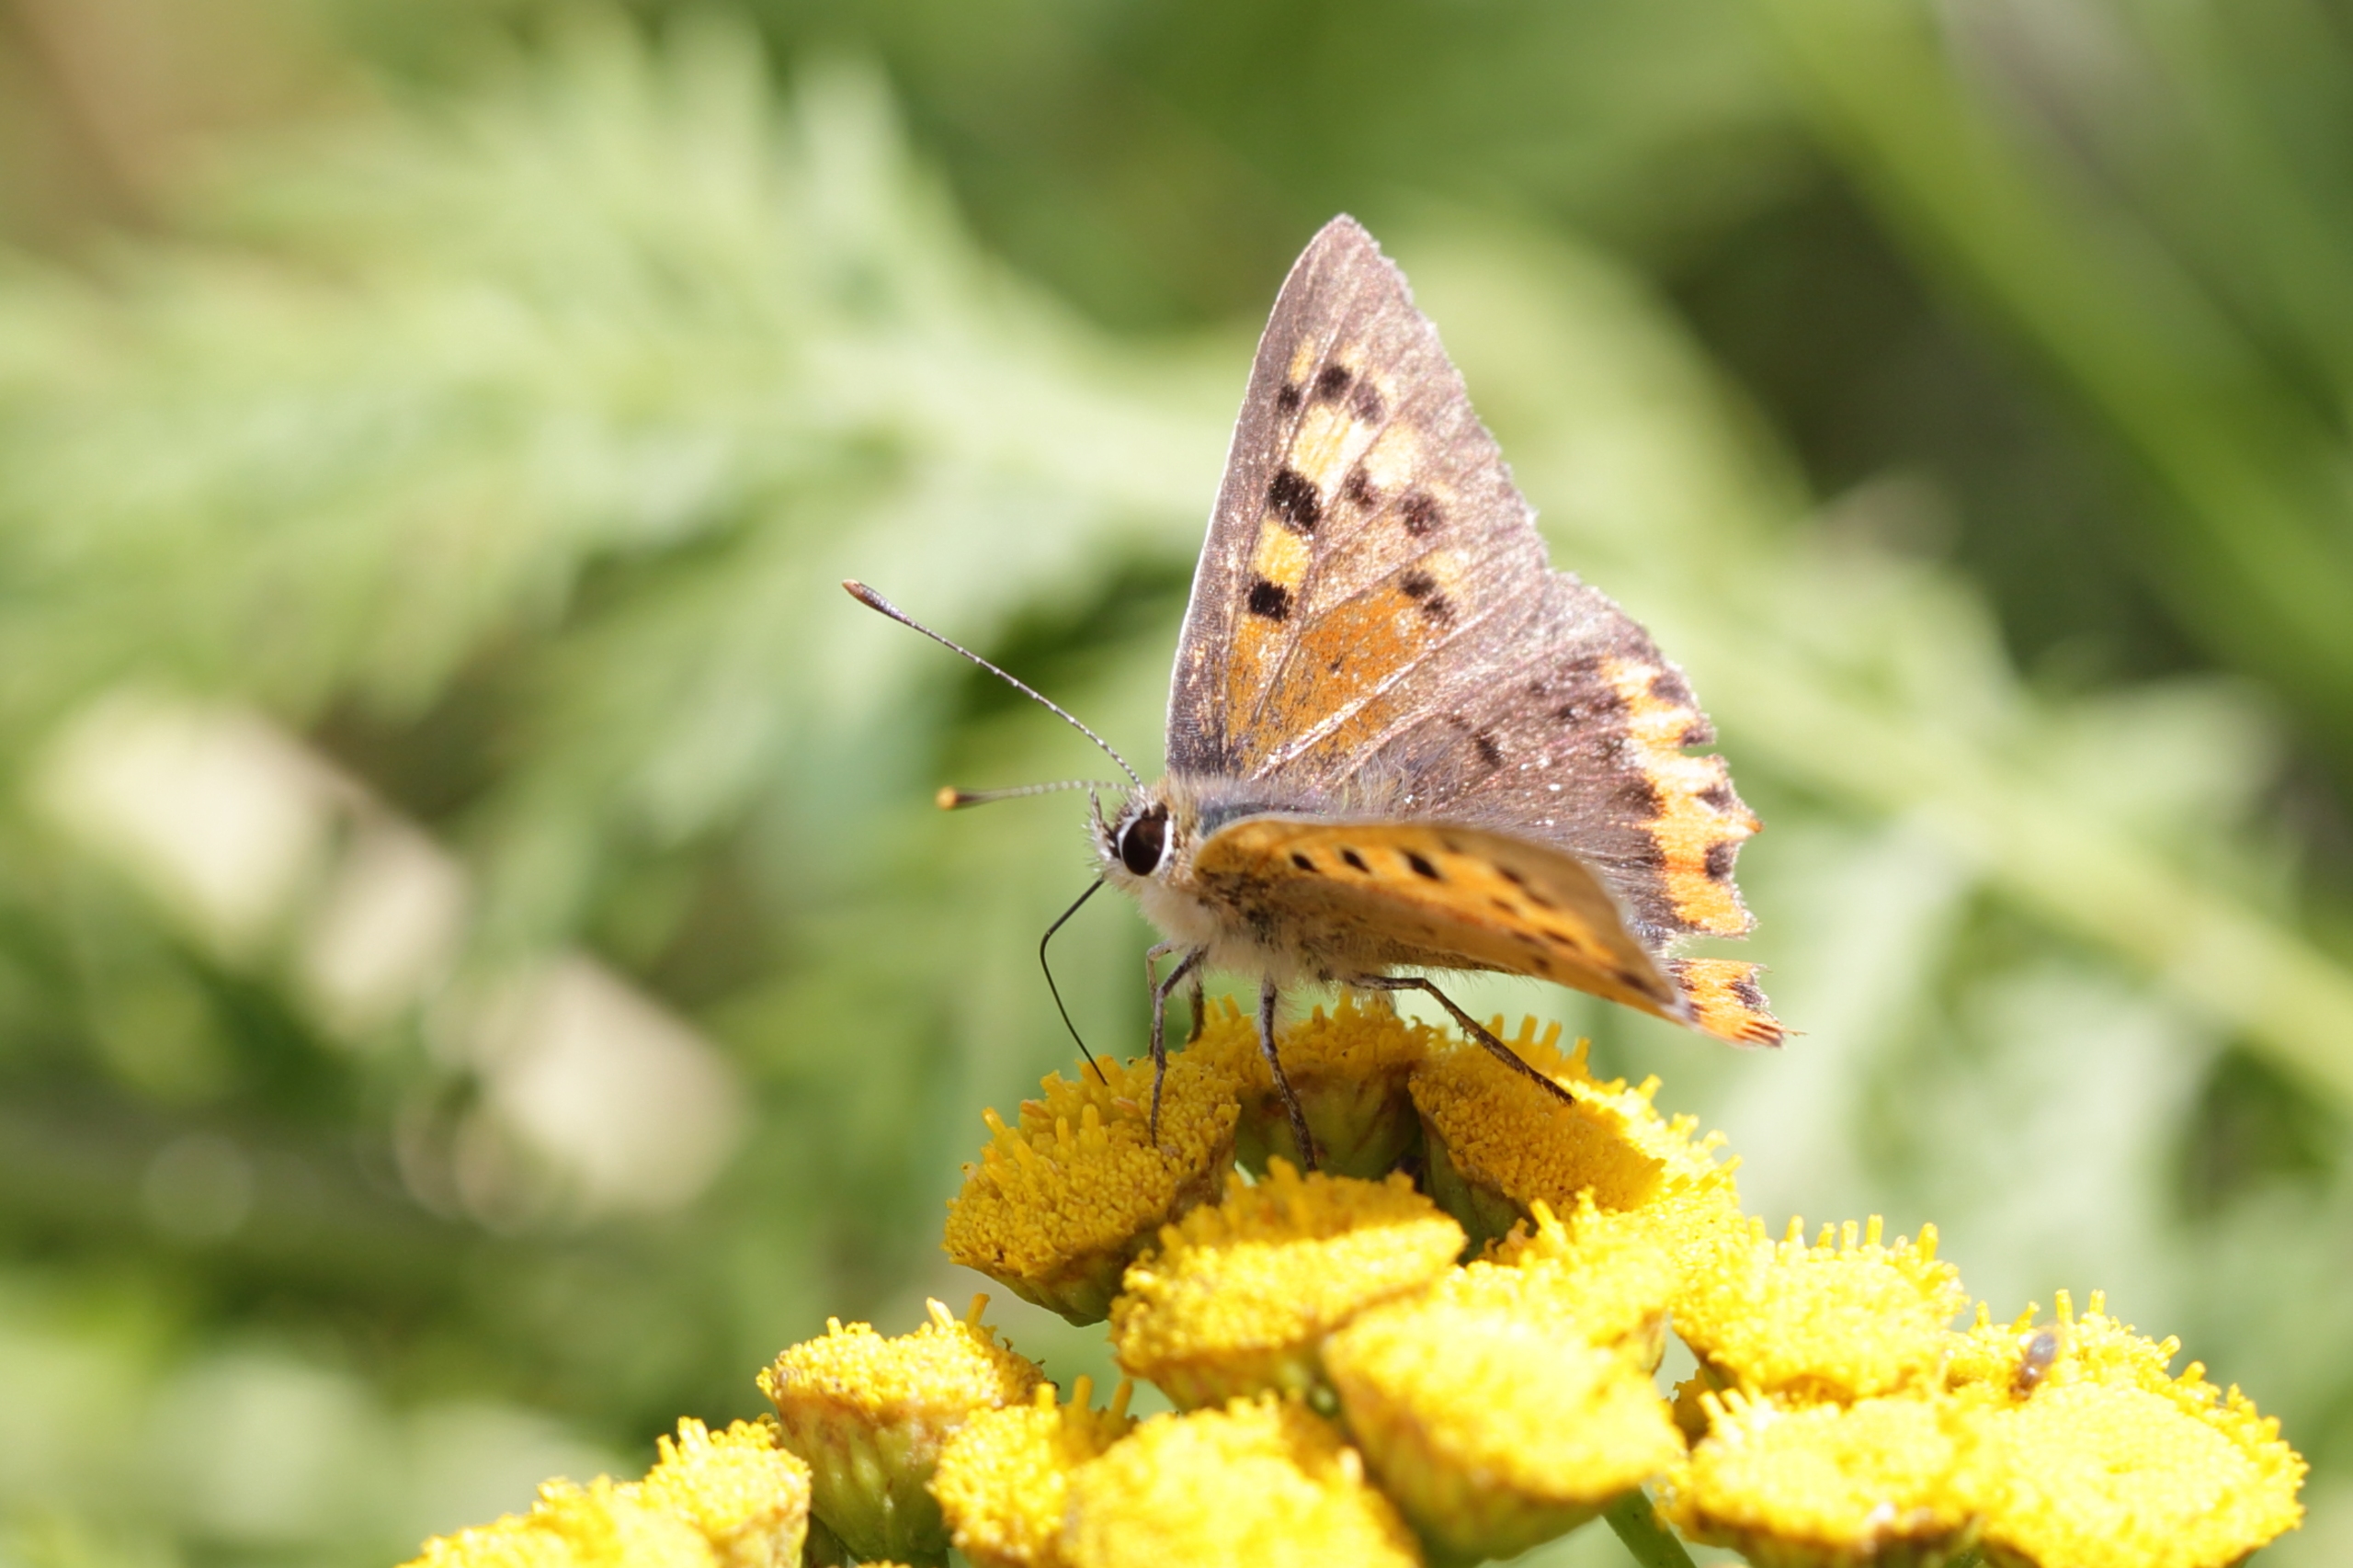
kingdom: Animalia
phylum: Arthropoda
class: Insecta
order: Lepidoptera
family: Lycaenidae
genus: Lycaena
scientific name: Lycaena phlaeas
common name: Lille ildfugl
